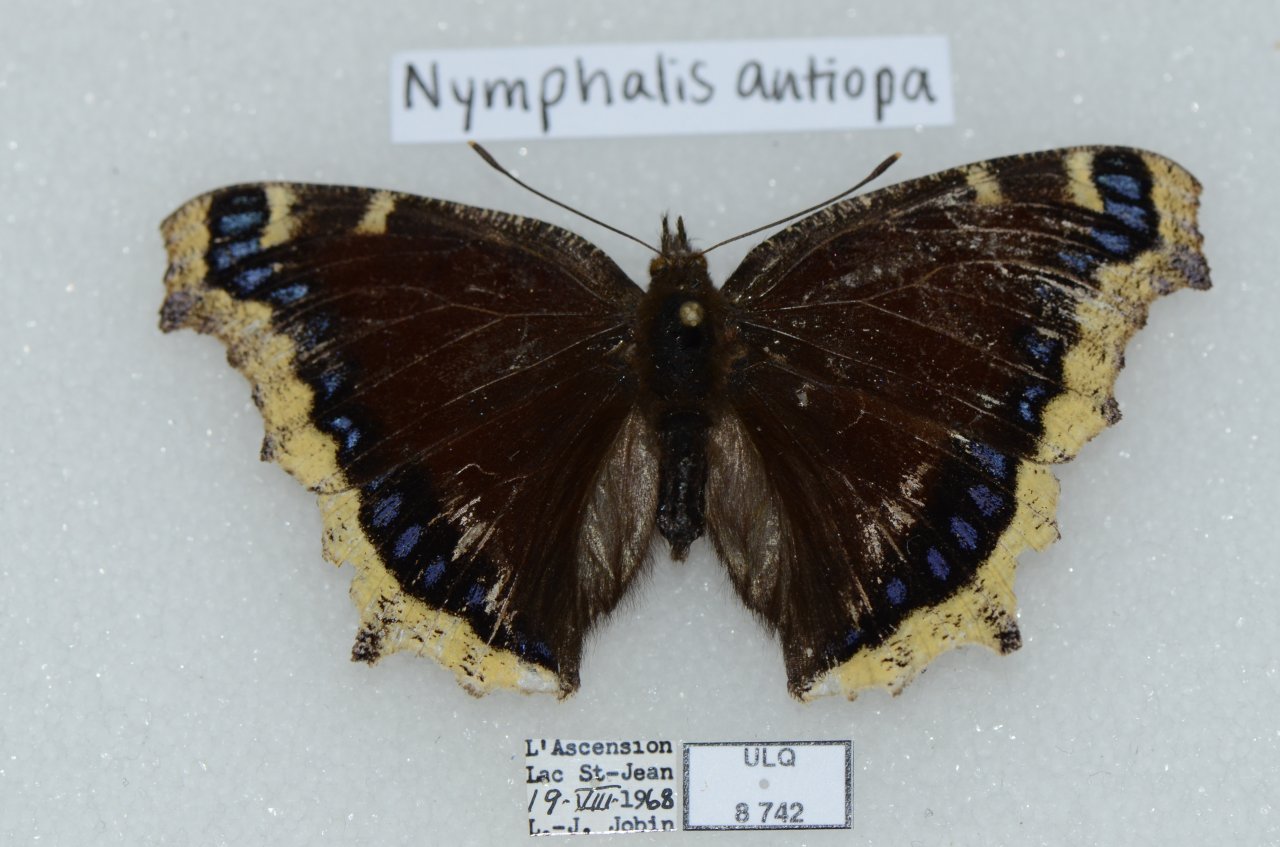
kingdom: Animalia
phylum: Arthropoda
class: Insecta
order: Lepidoptera
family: Nymphalidae
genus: Nymphalis
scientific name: Nymphalis antiopa
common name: Mourning Cloak
